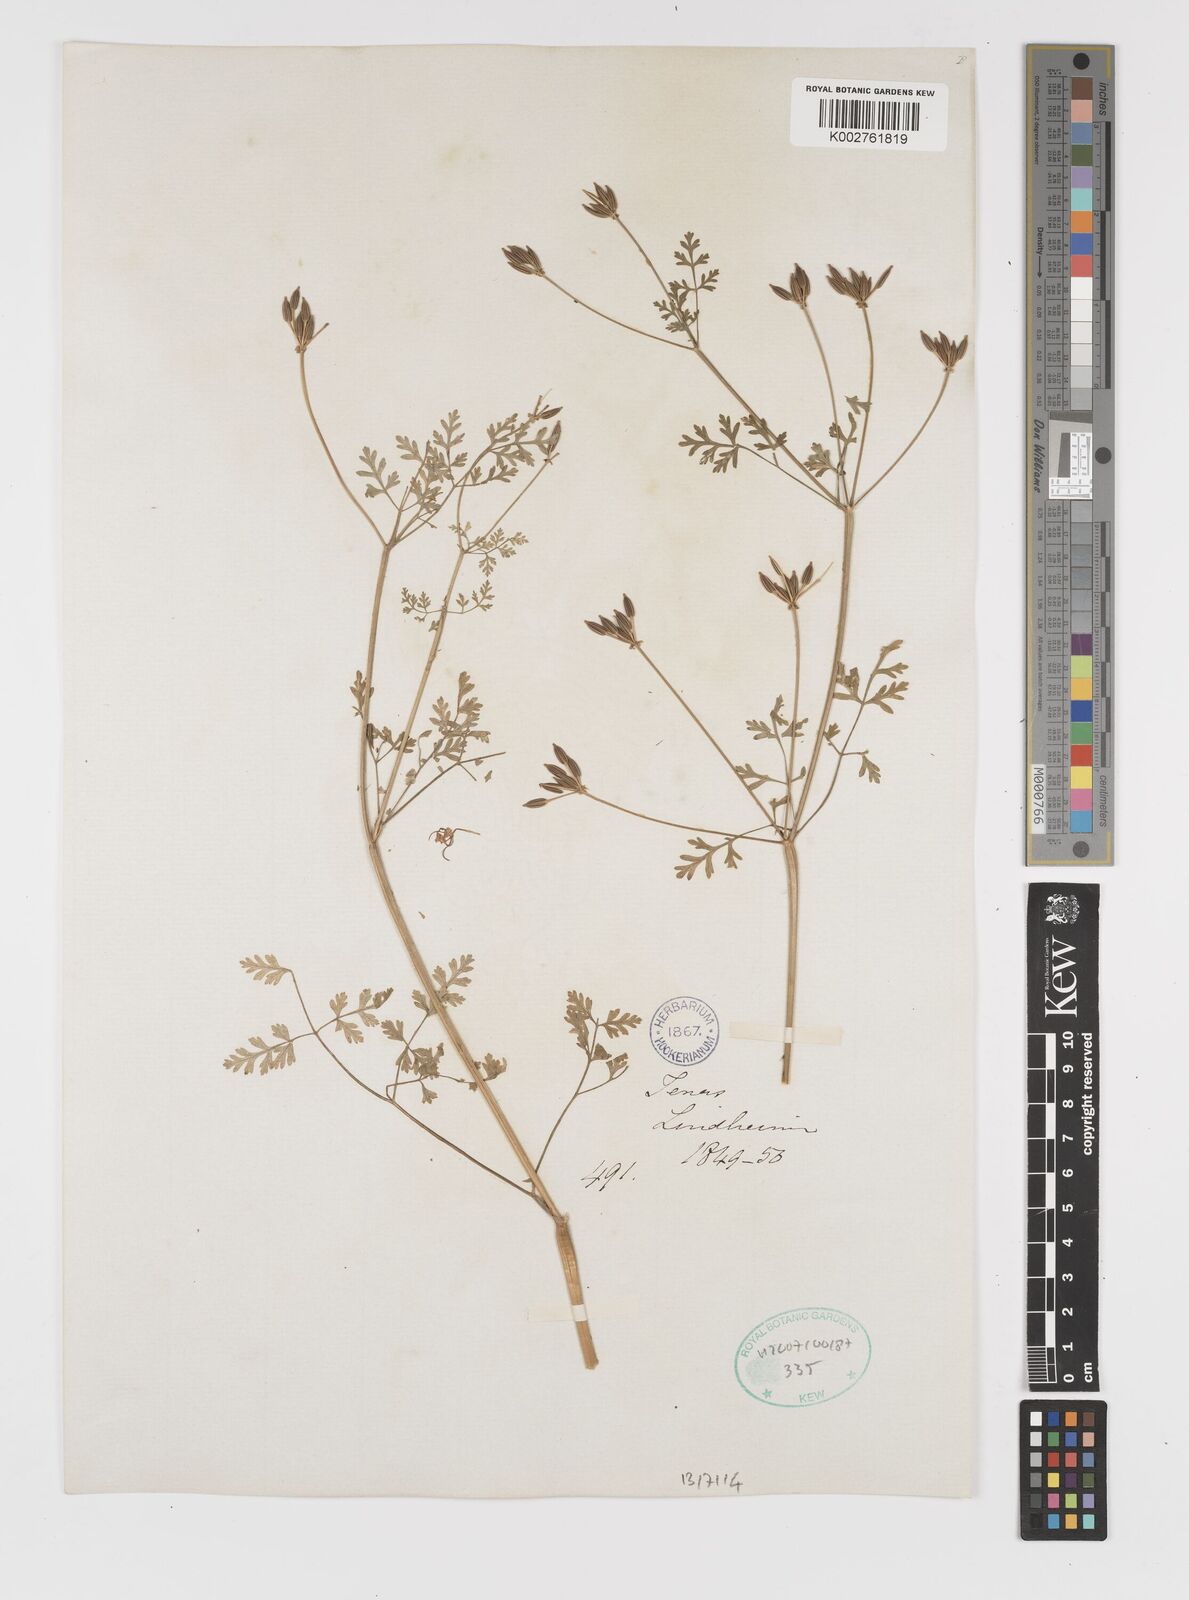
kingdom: Plantae
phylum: Tracheophyta
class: Magnoliopsida
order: Apiales
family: Apiaceae
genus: Chaerophyllum
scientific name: Chaerophyllum tainturieri
